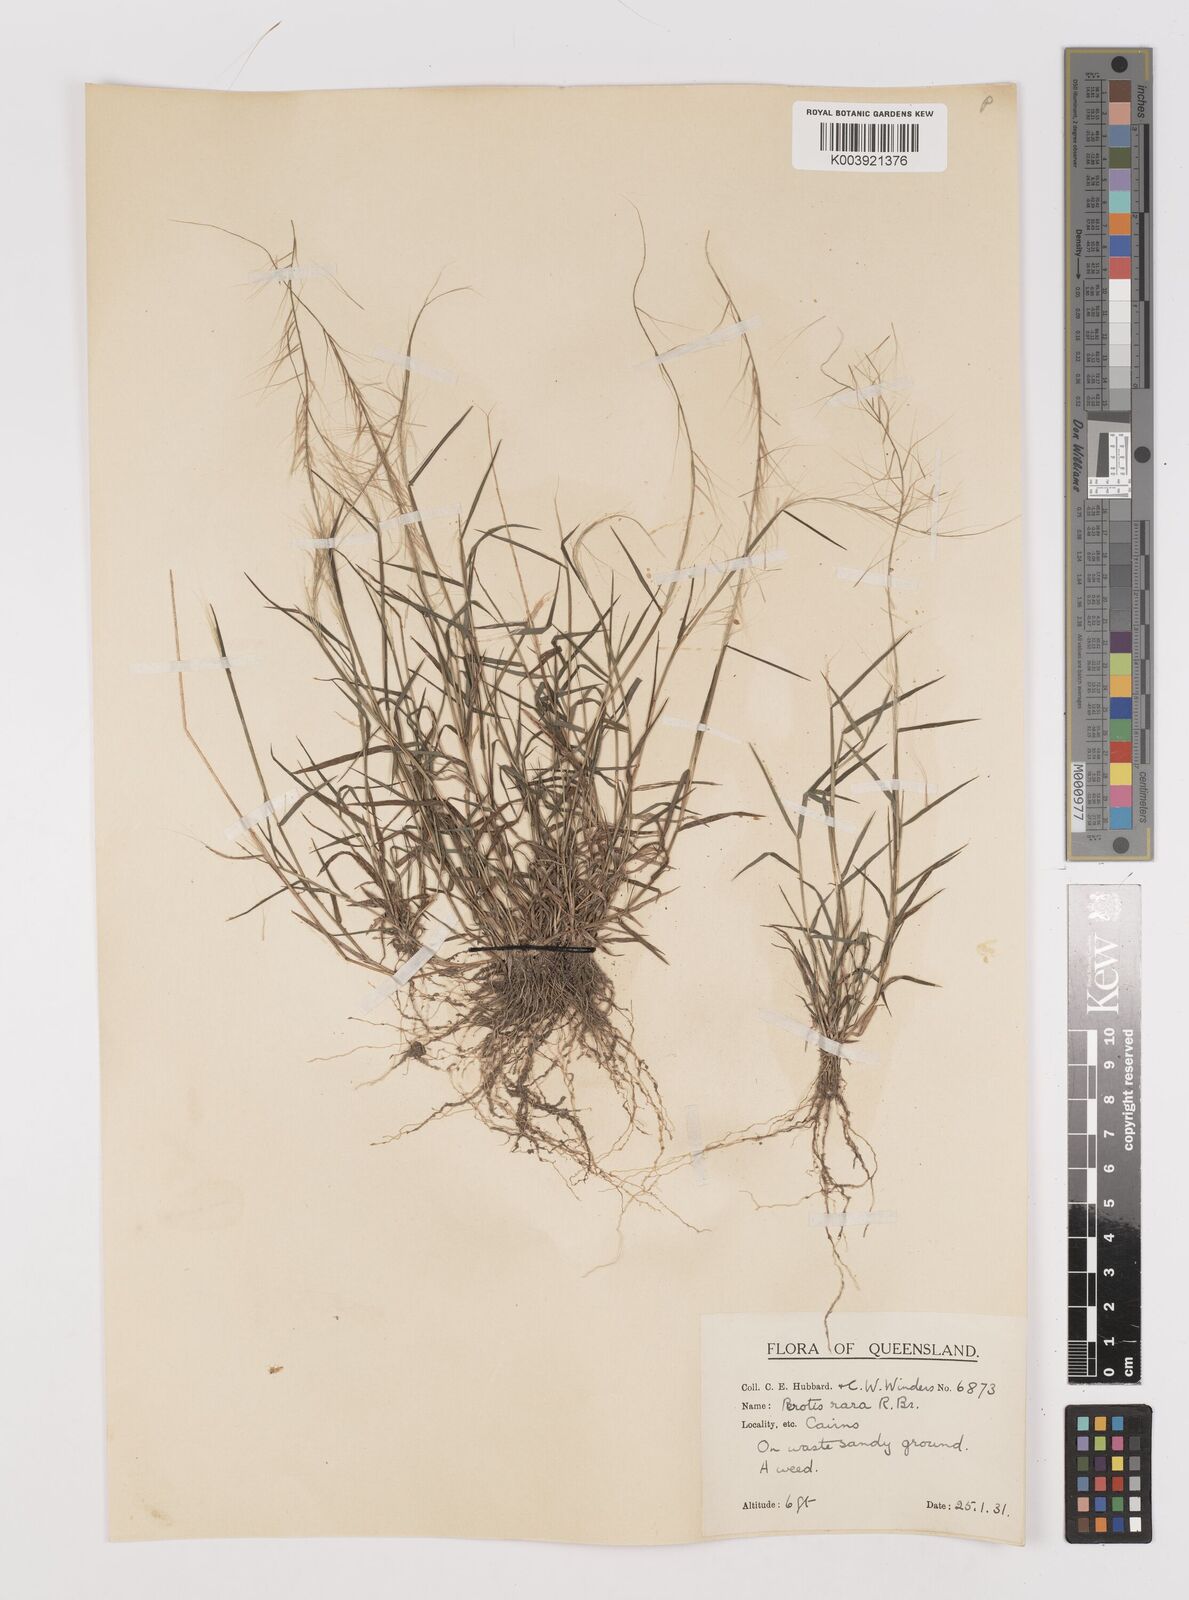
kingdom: Plantae
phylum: Tracheophyta
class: Liliopsida
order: Poales
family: Poaceae
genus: Perotis
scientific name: Perotis rara
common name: Comet grass
